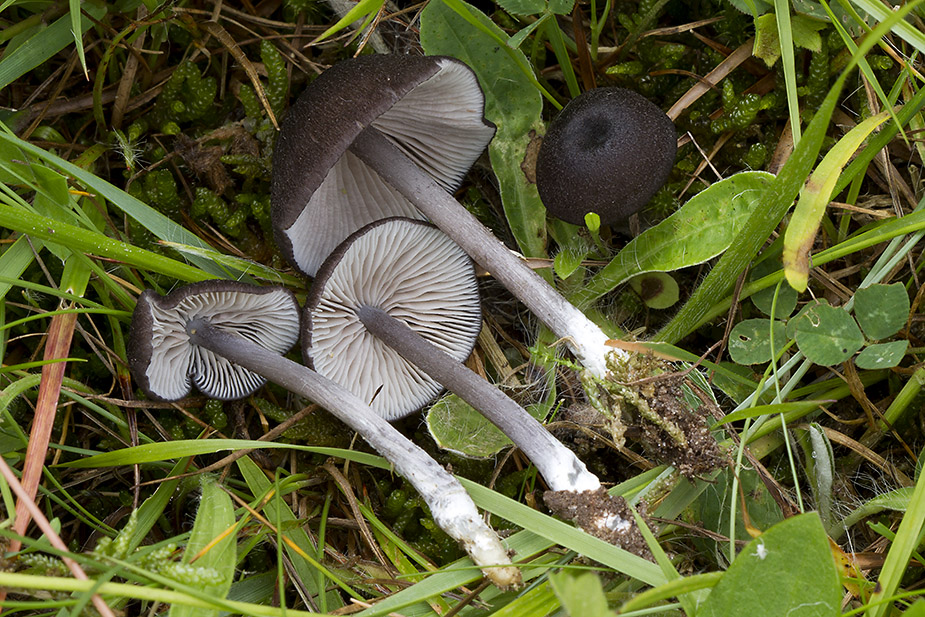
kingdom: Fungi
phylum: Basidiomycota
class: Agaricomycetes
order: Agaricales
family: Entolomataceae
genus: Entoloma
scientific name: Entoloma porphyrogriseum
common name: porfyrgrå rødblad
